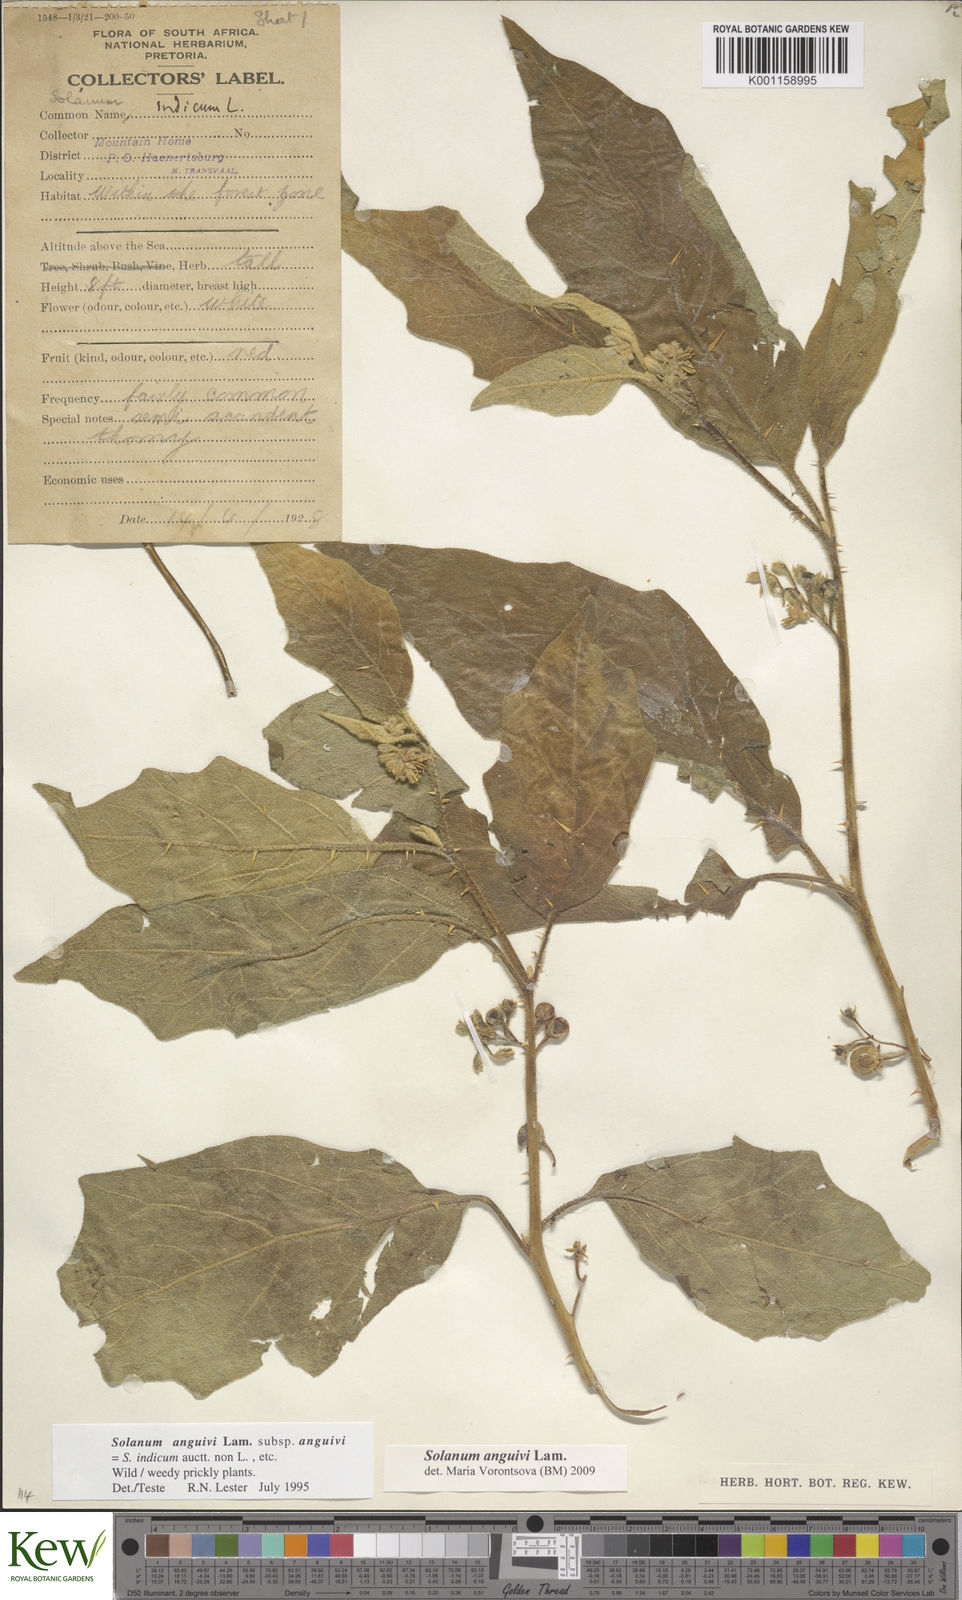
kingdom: Plantae
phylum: Tracheophyta
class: Magnoliopsida
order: Solanales
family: Solanaceae
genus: Solanum
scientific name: Solanum anguivi
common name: Forest bitterberry
